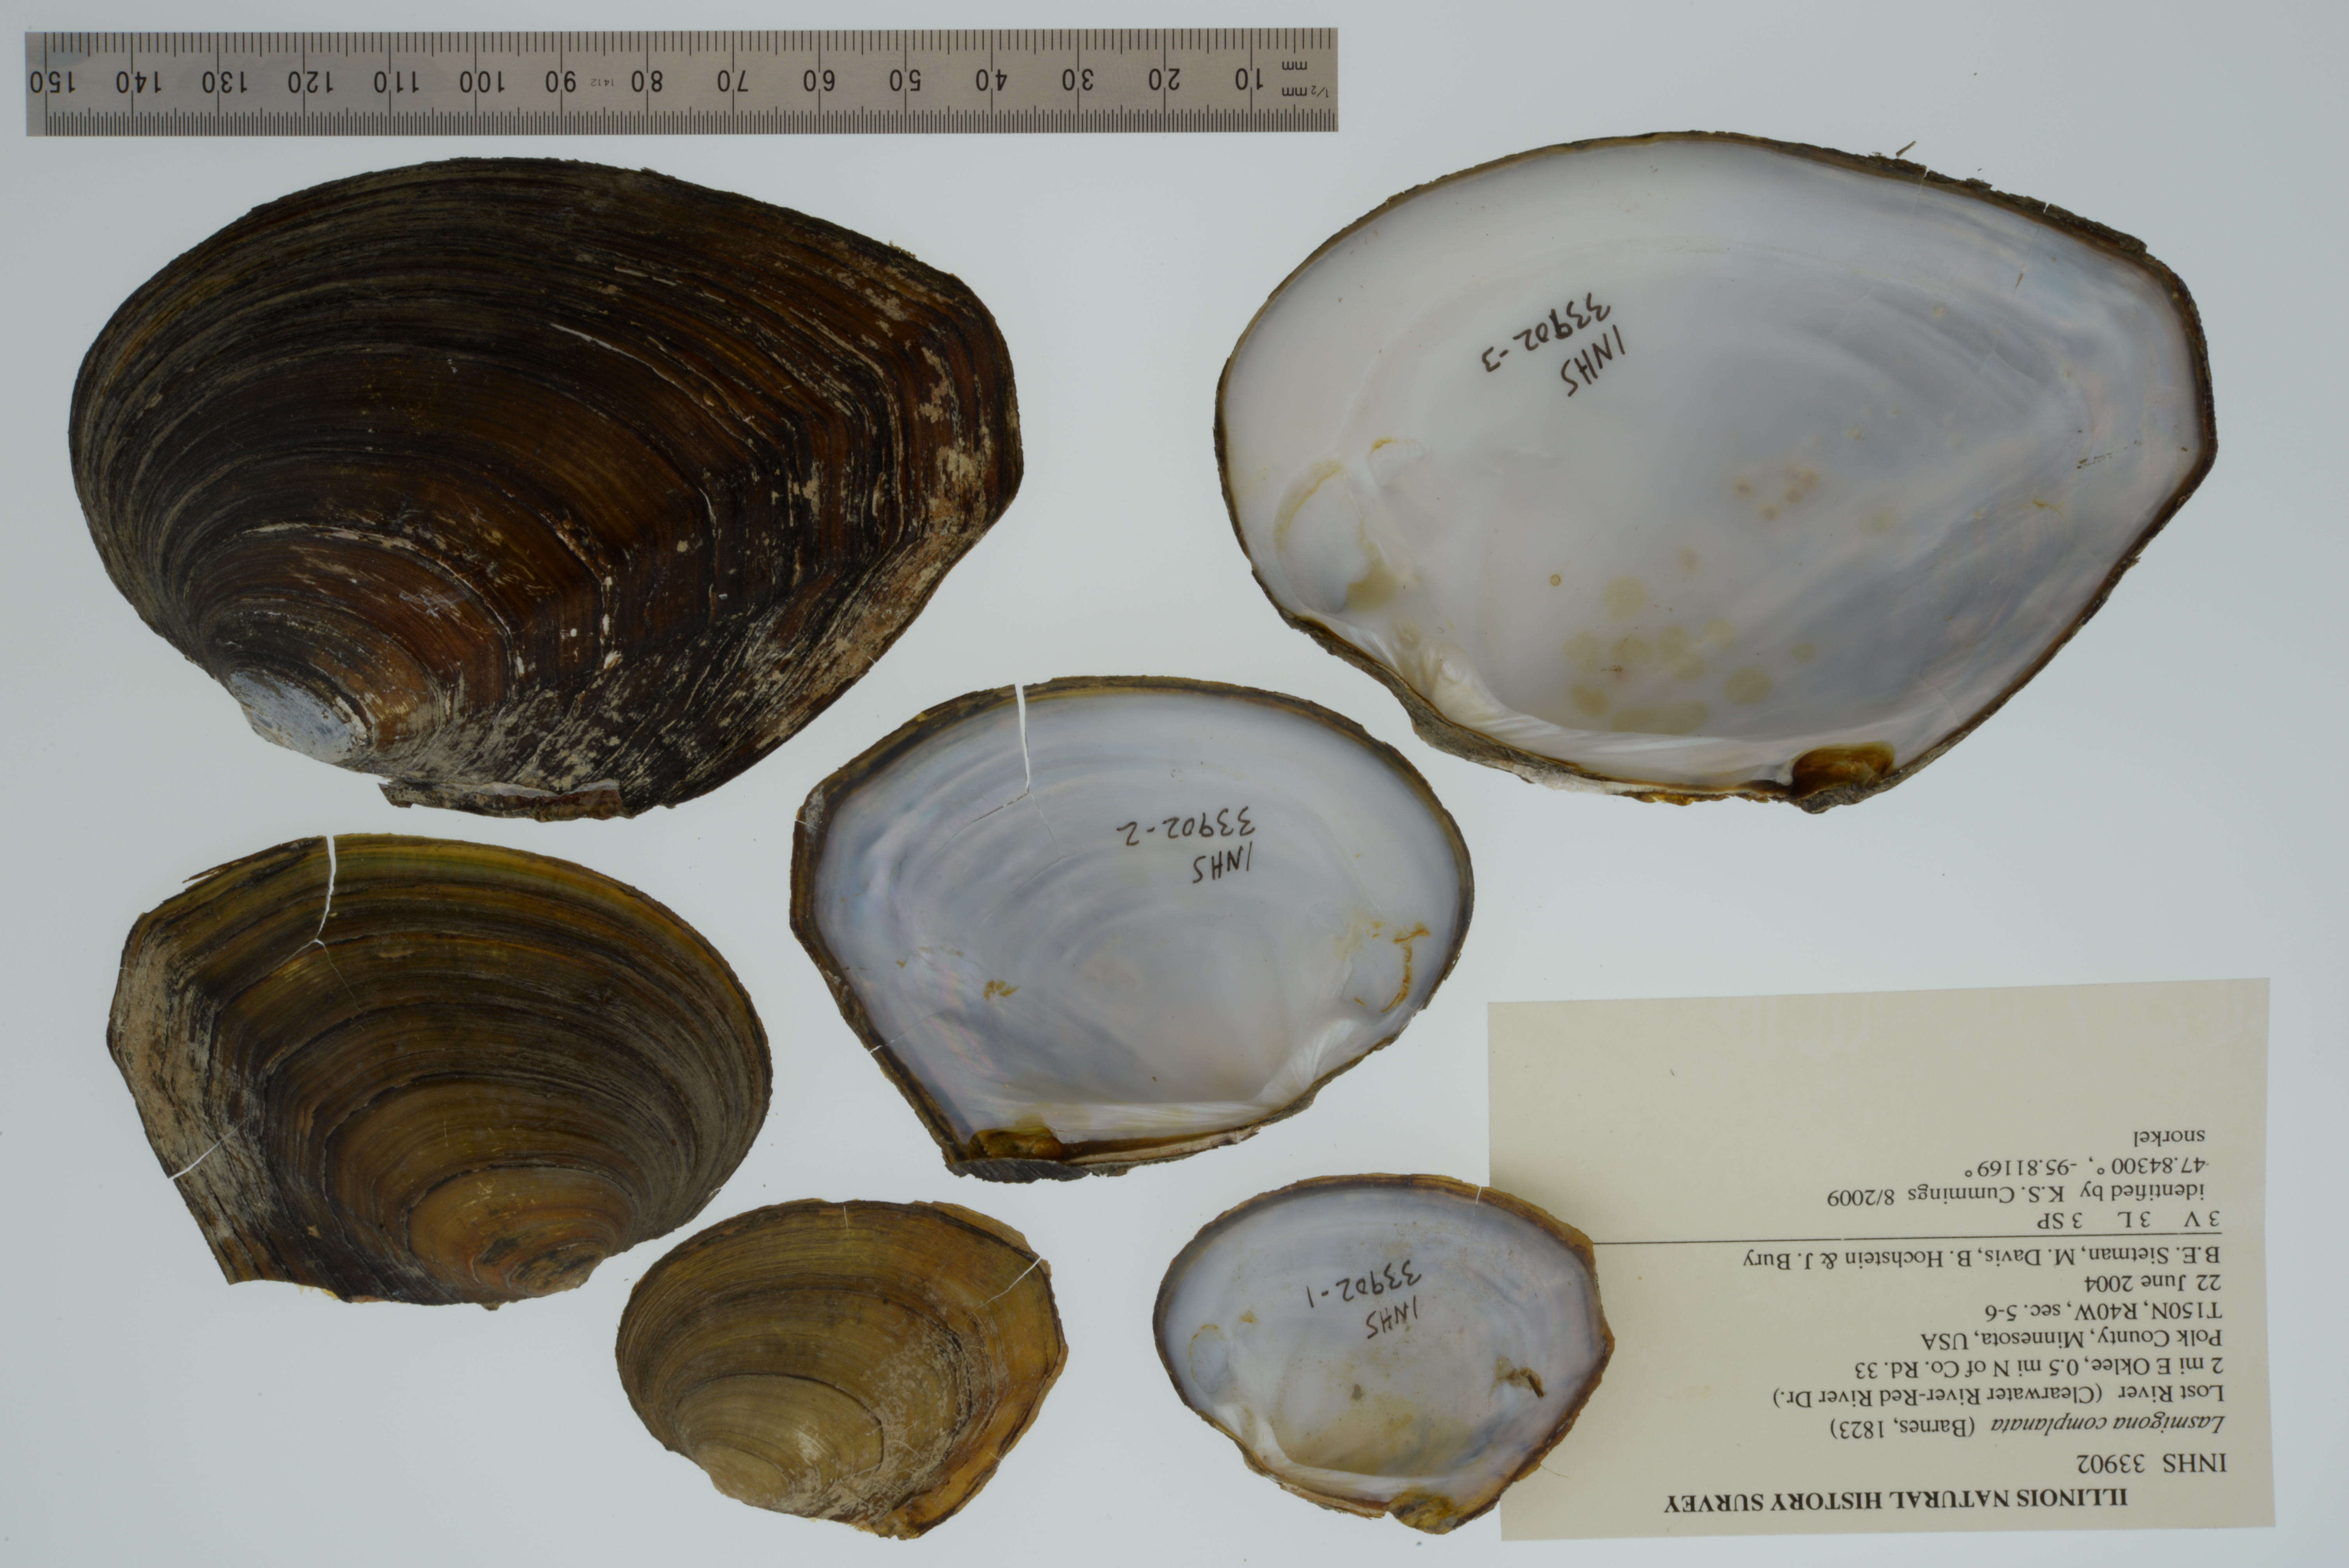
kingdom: Animalia
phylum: Mollusca
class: Bivalvia
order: Unionida
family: Unionidae
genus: Lasmigona
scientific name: Lasmigona complanata
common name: White heelsplitter
